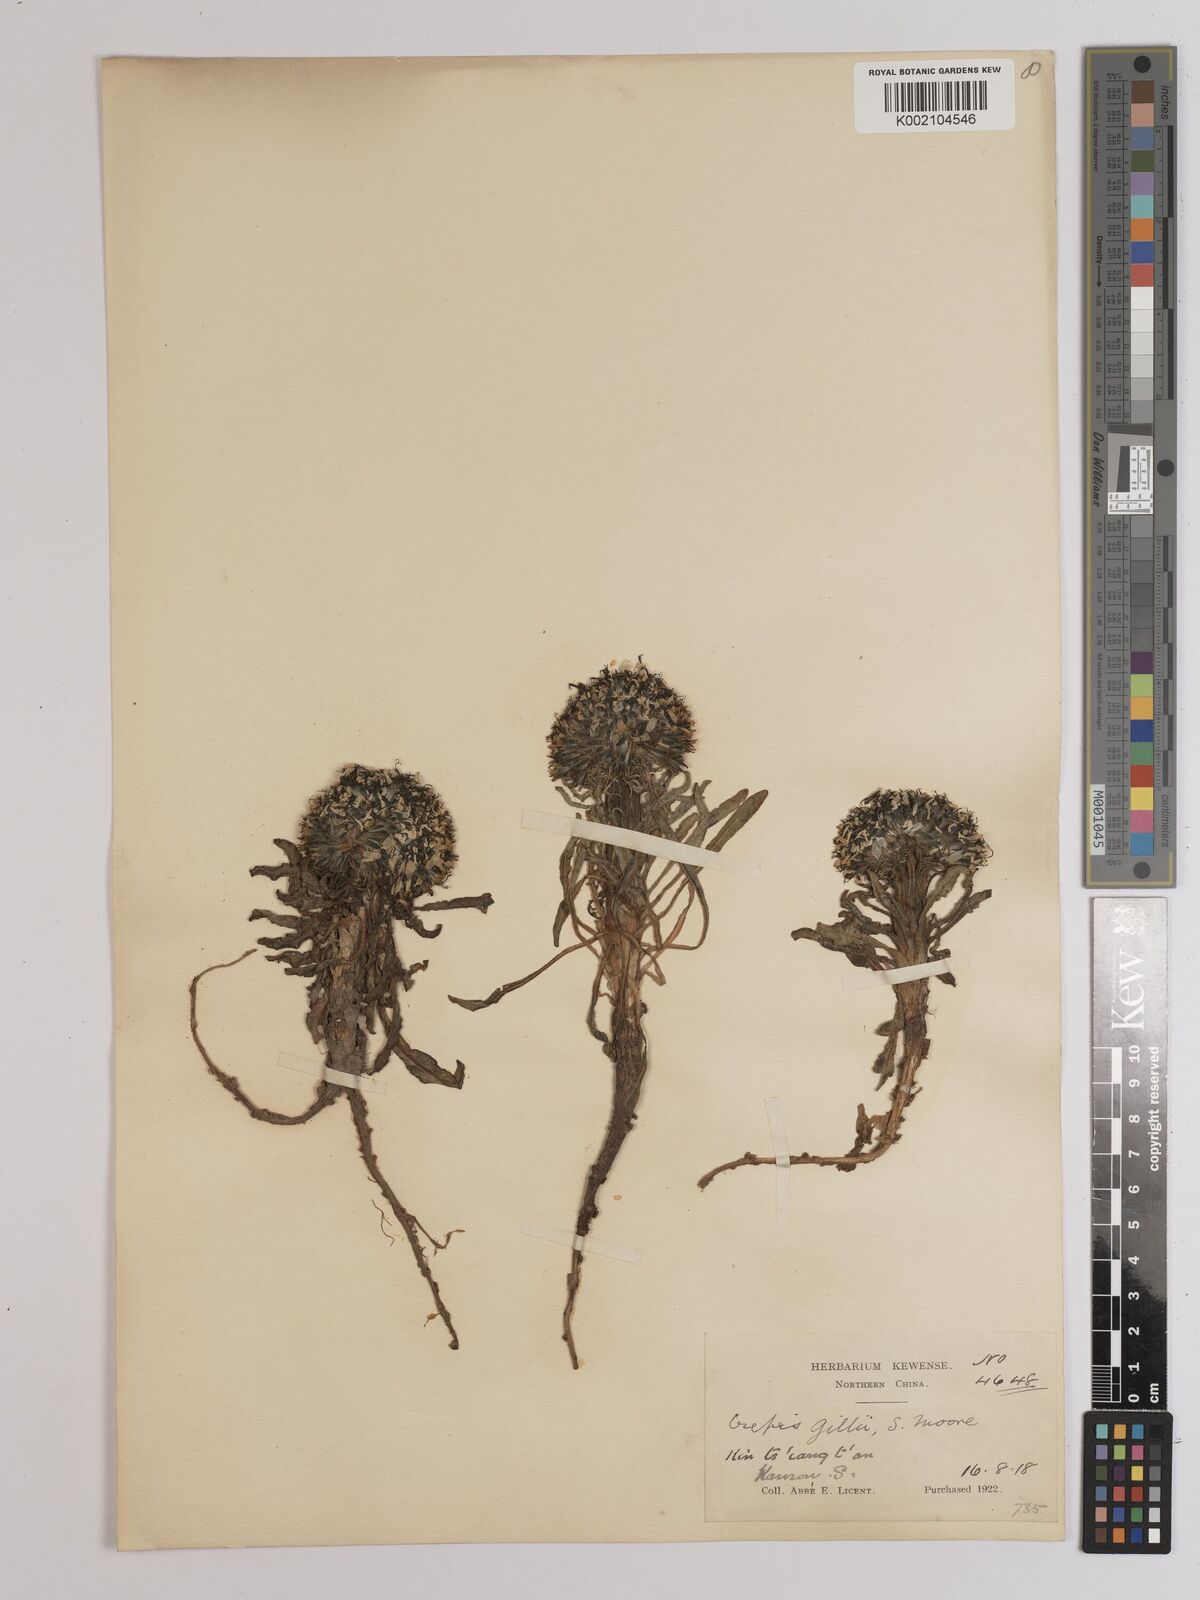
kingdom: Plantae
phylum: Tracheophyta
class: Magnoliopsida
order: Asterales
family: Asteraceae
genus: Soroseris
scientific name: Soroseris hookeriana
